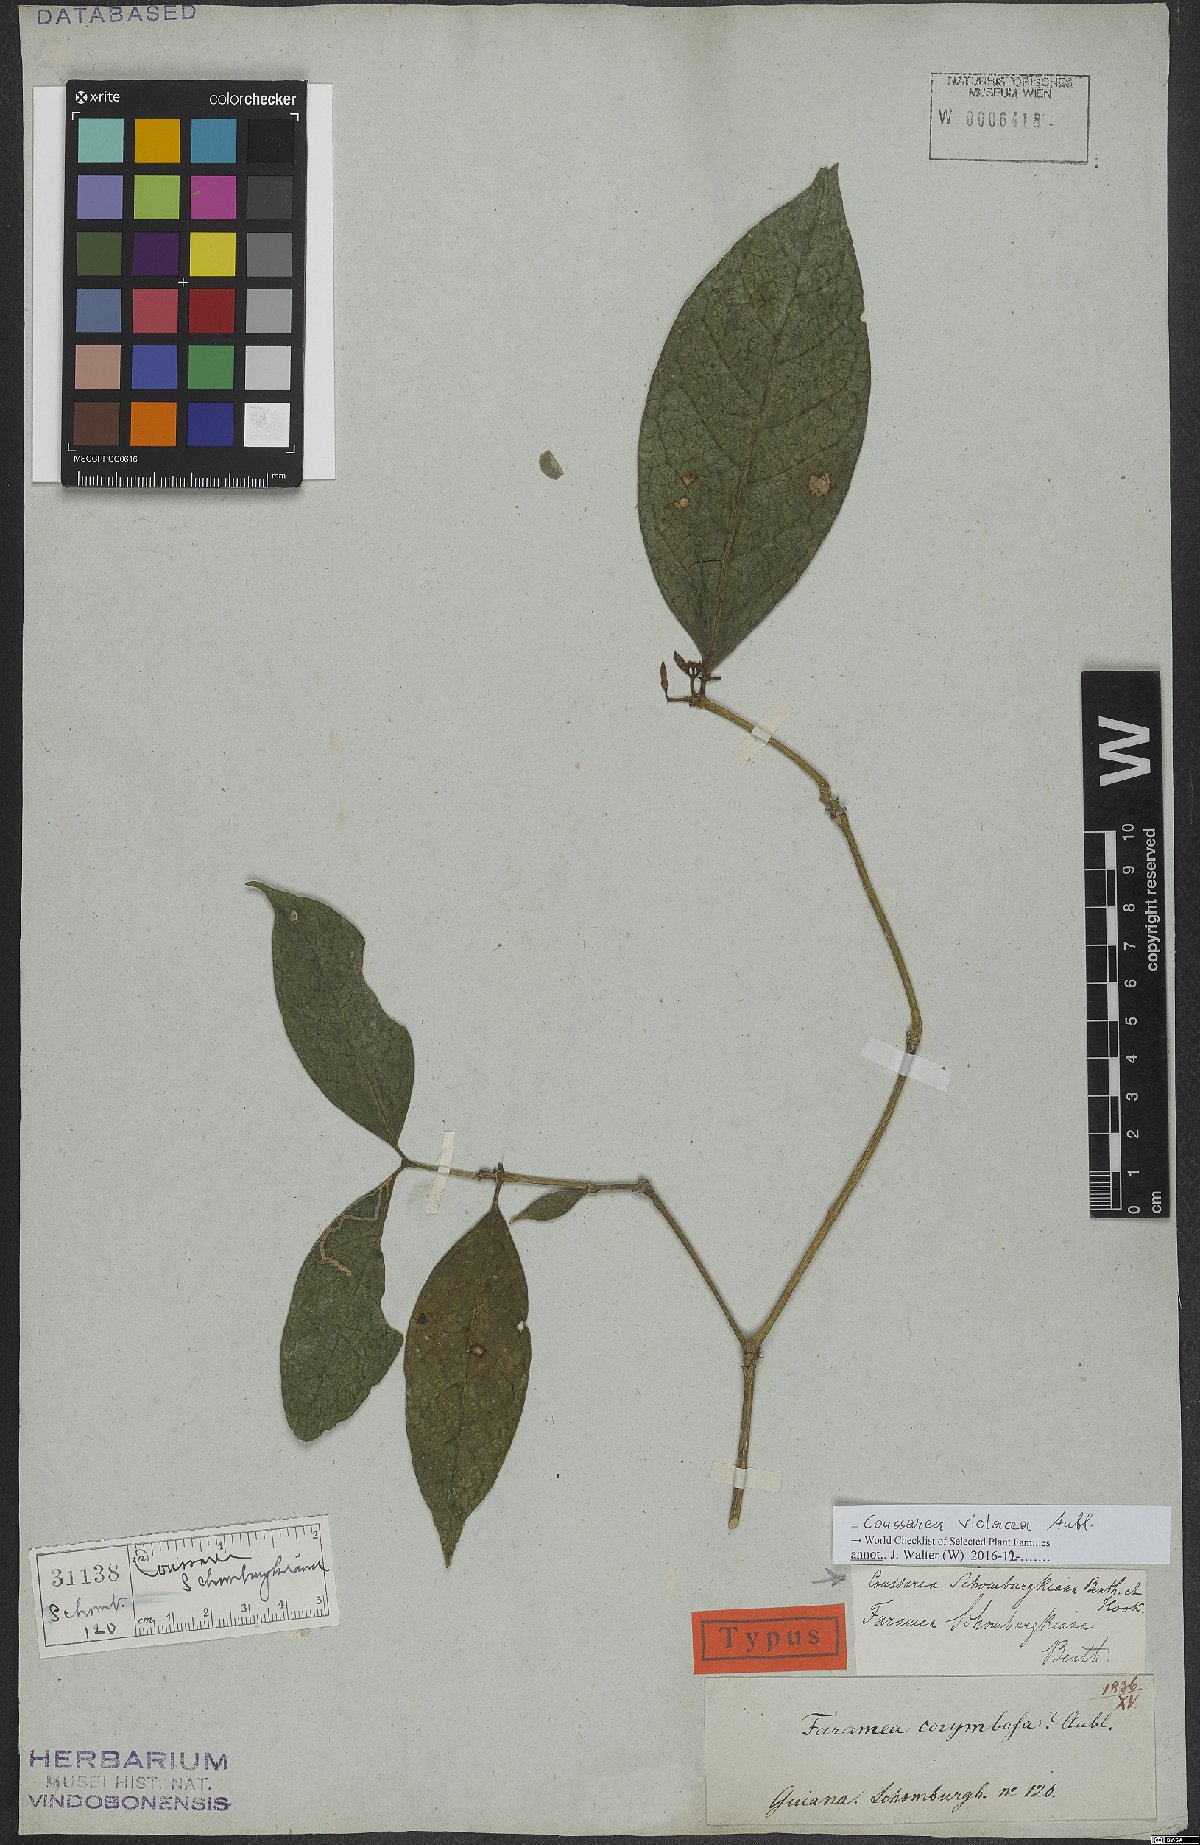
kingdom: Plantae
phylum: Tracheophyta
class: Magnoliopsida
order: Gentianales
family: Rubiaceae
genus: Coussarea
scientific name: Coussarea violacea
